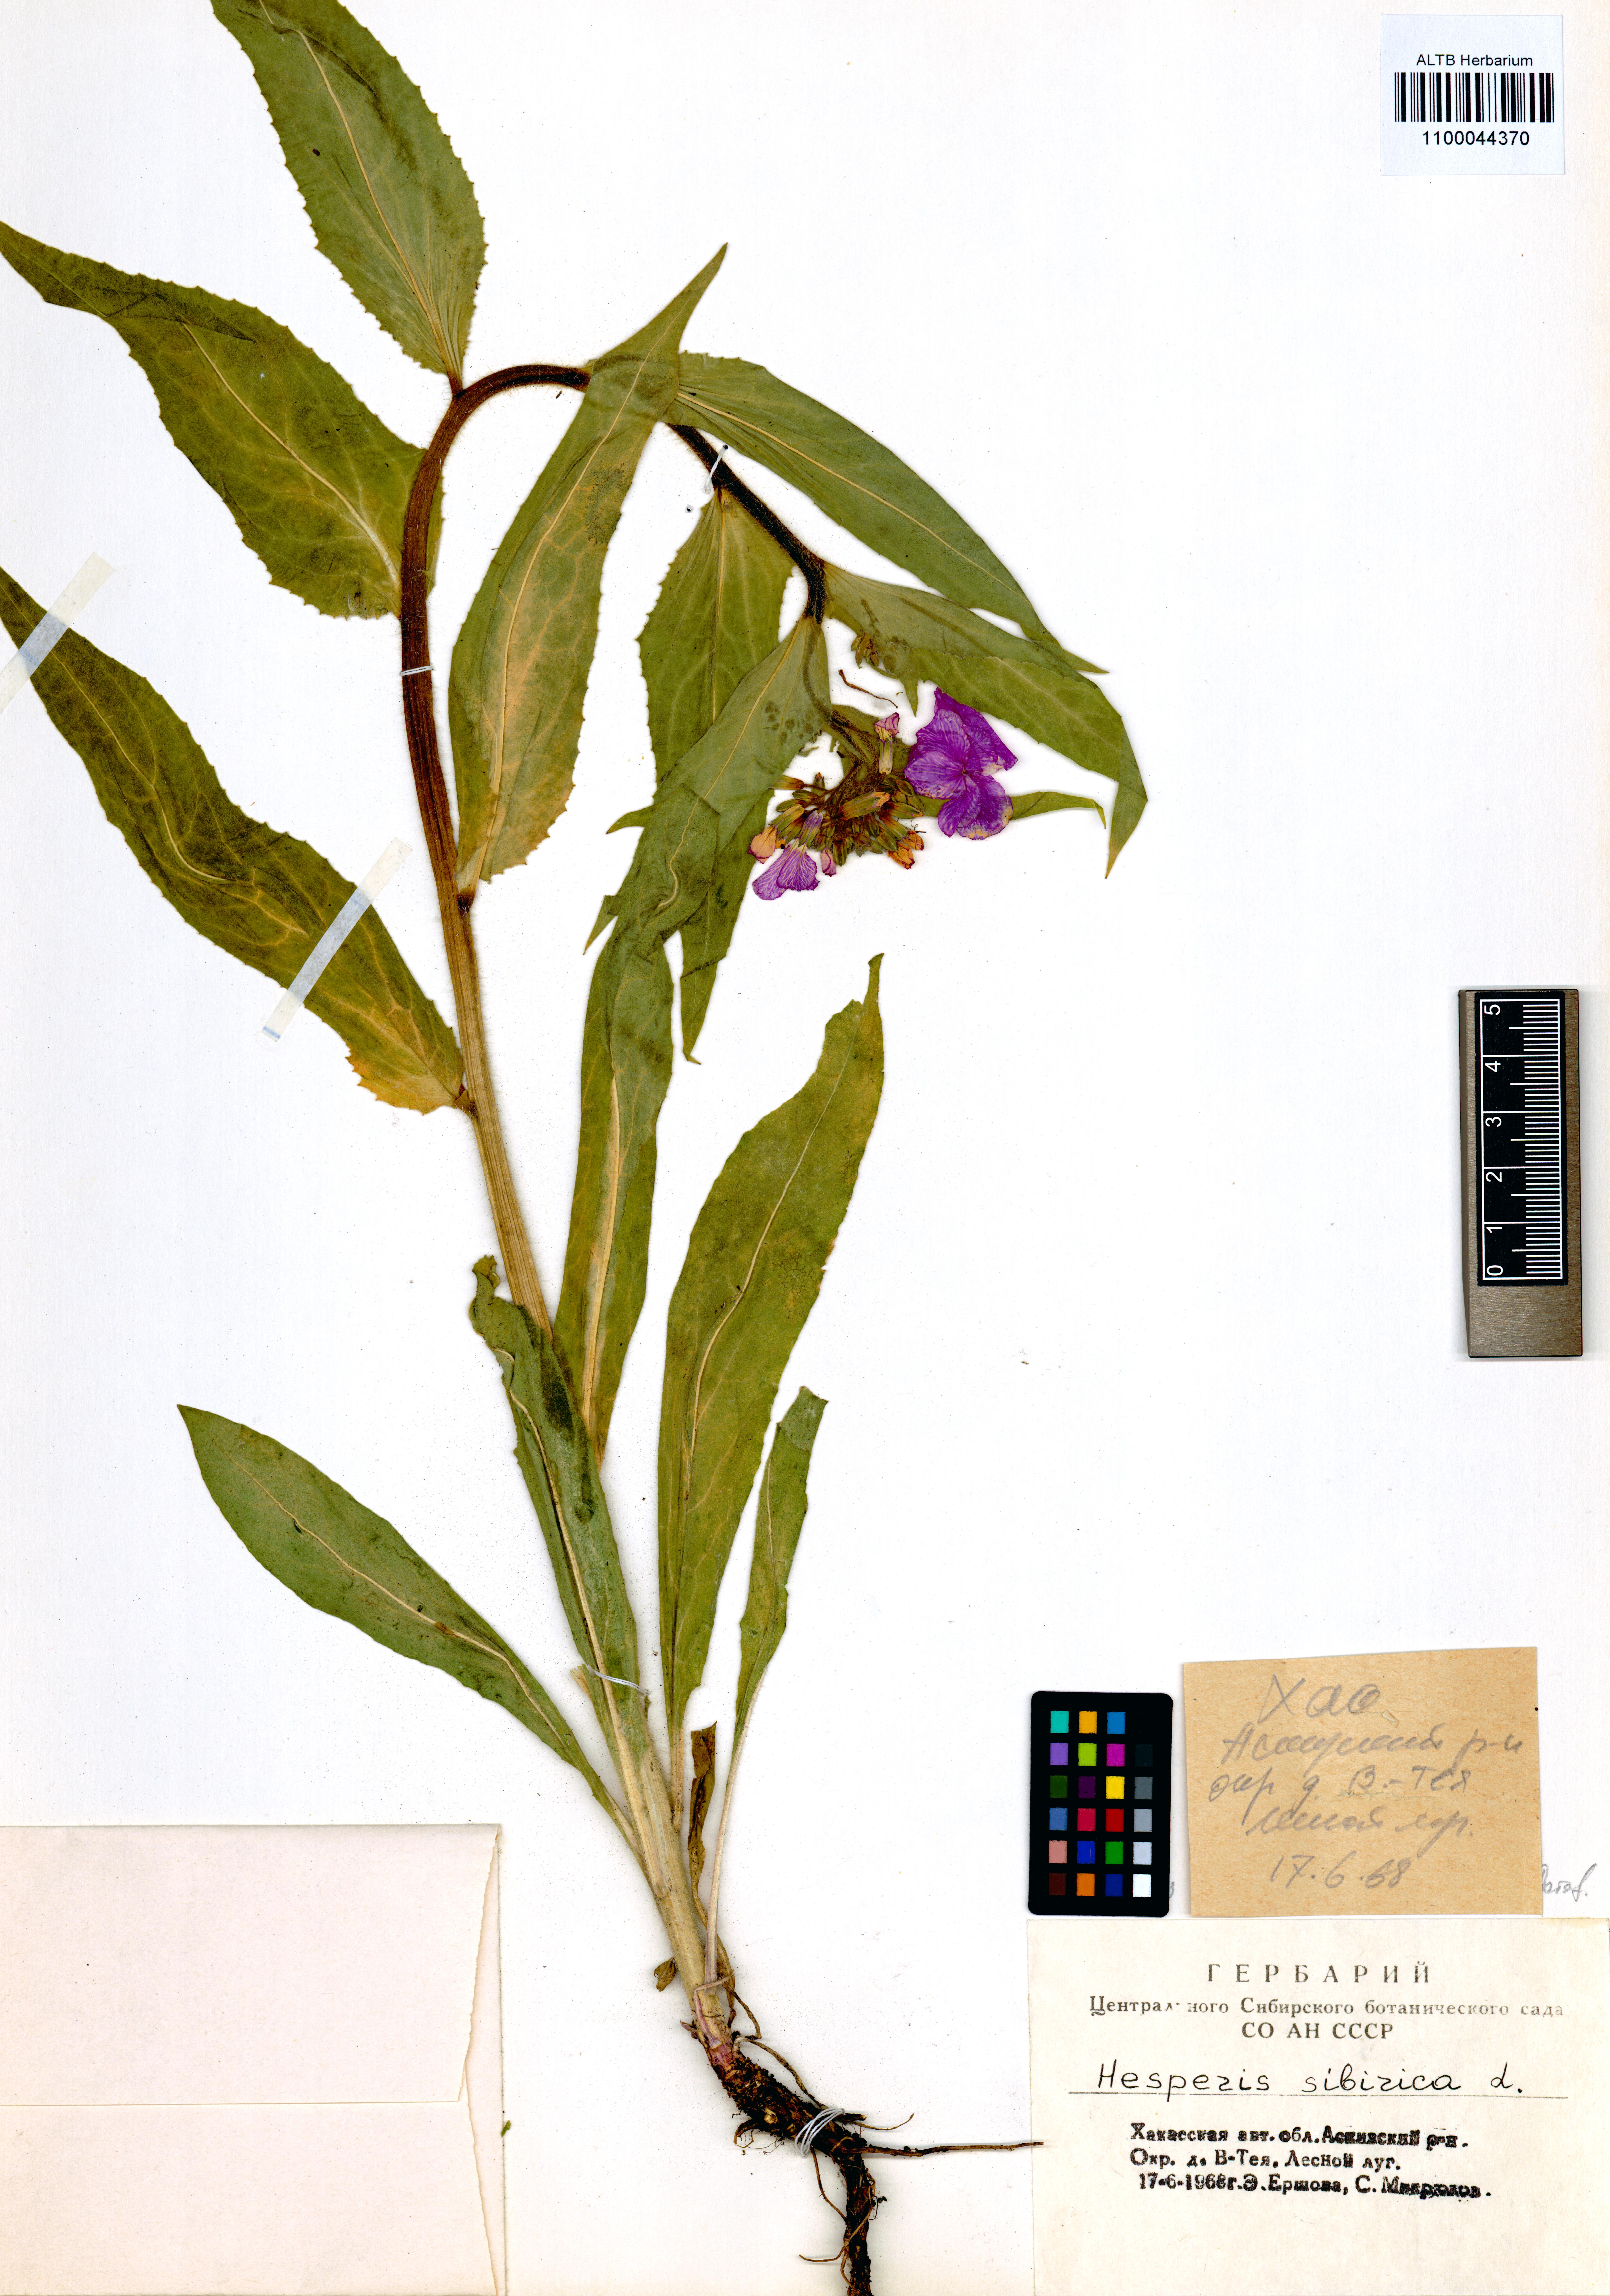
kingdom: Plantae
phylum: Tracheophyta
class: Magnoliopsida
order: Brassicales
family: Brassicaceae
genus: Hesperis
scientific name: Hesperis sibirica
